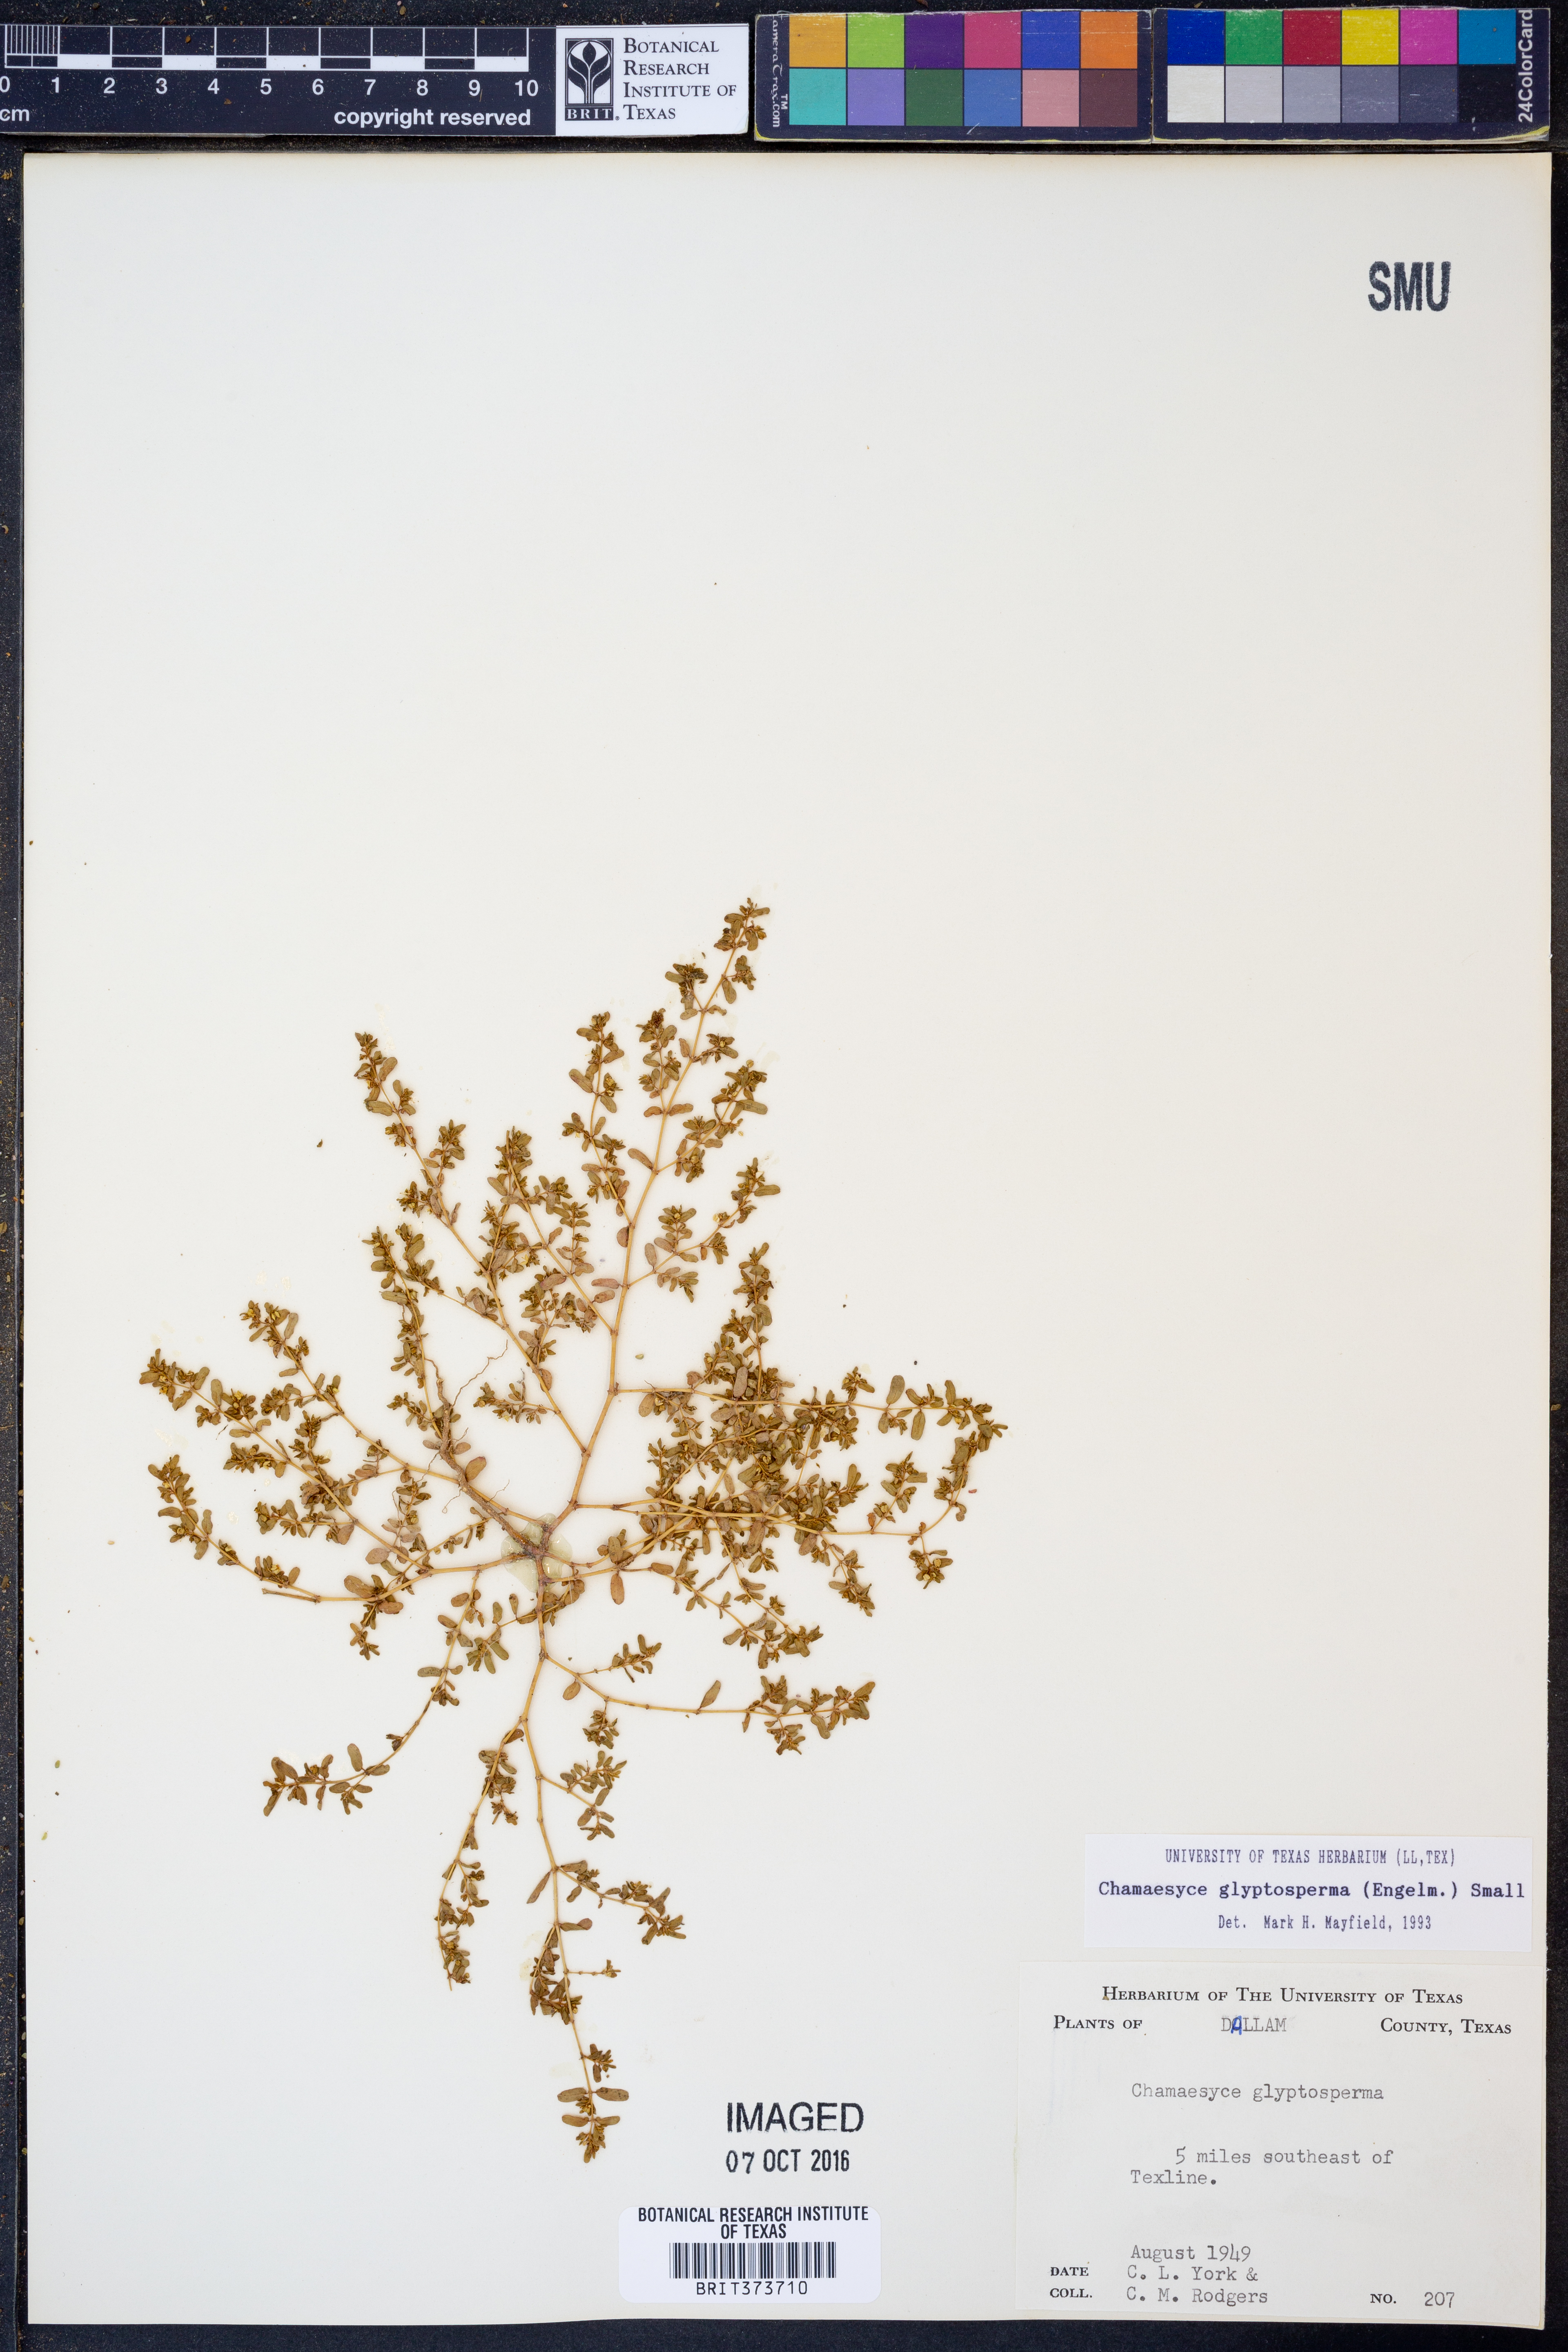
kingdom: Plantae
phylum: Tracheophyta
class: Magnoliopsida
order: Malpighiales
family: Euphorbiaceae
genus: Euphorbia
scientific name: Euphorbia glyptosperma
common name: Corrugate-seeded spurge
